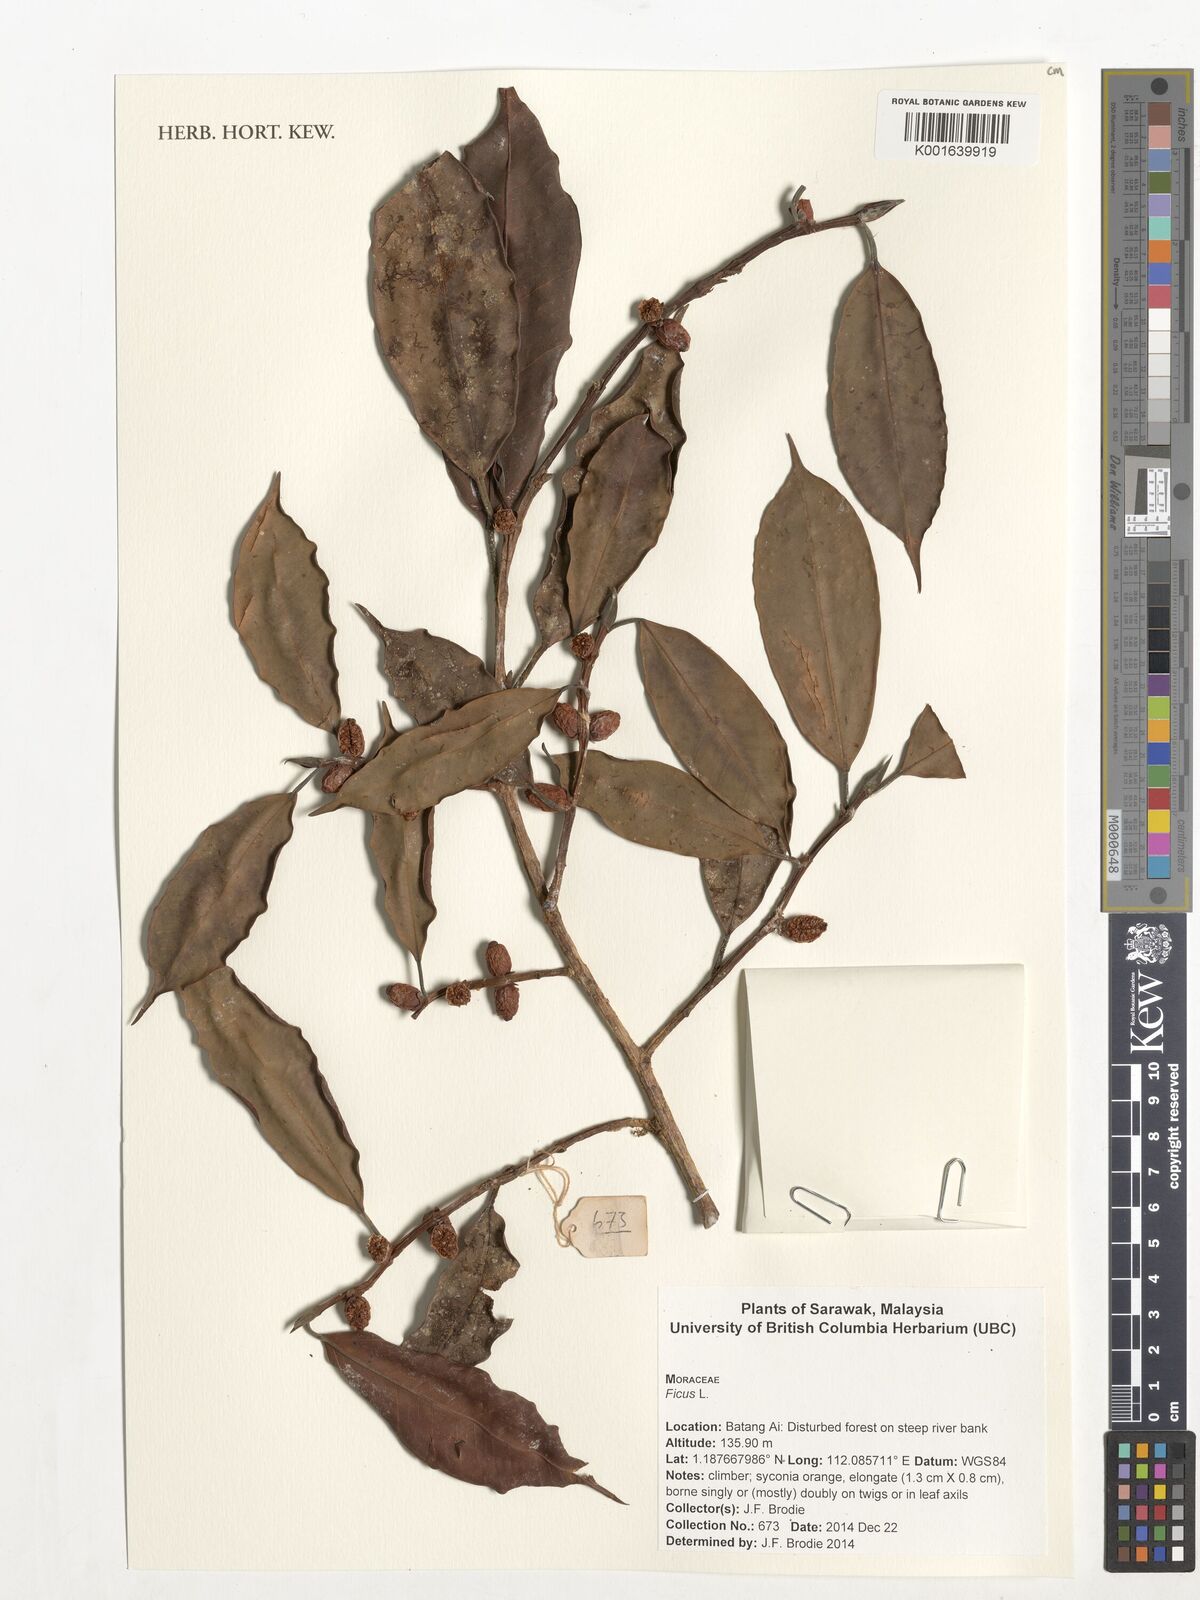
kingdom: Plantae
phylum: Tracheophyta
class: Magnoliopsida
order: Rosales
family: Moraceae
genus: Ficus
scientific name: Ficus
